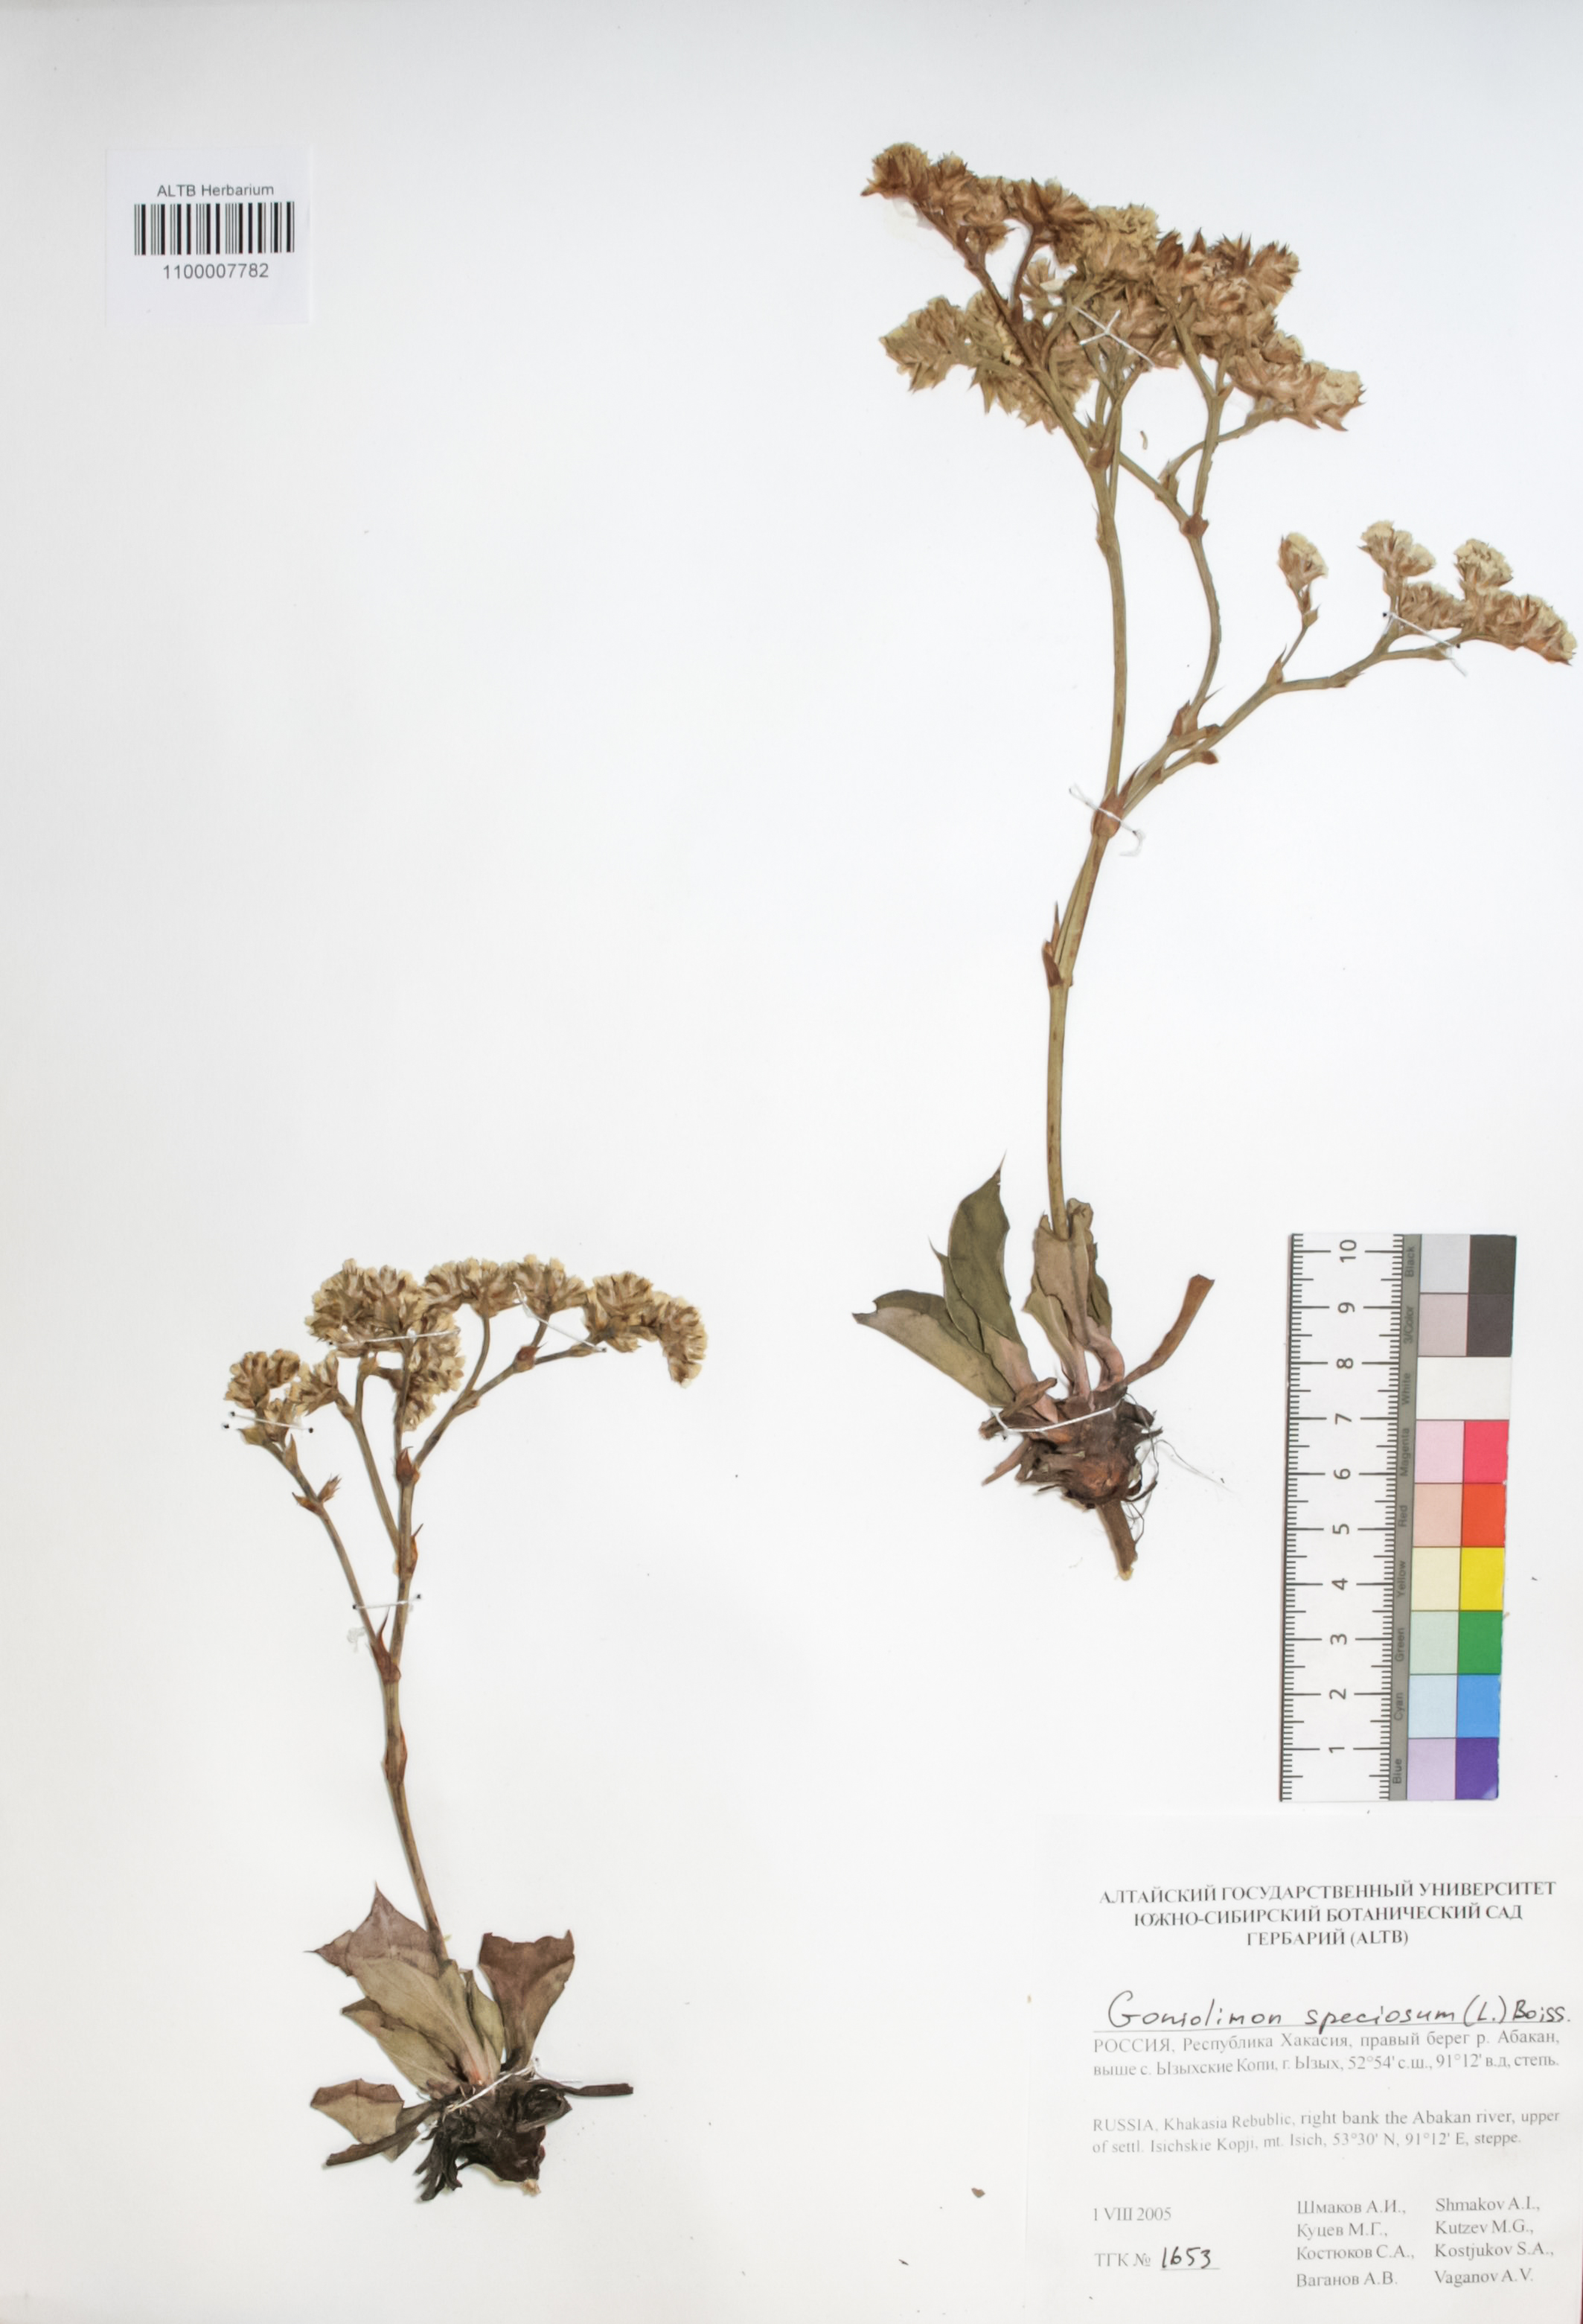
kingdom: Plantae
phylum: Tracheophyta
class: Magnoliopsida
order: Caryophyllales
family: Plumbaginaceae
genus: Goniolimon
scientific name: Goniolimon speciosum
